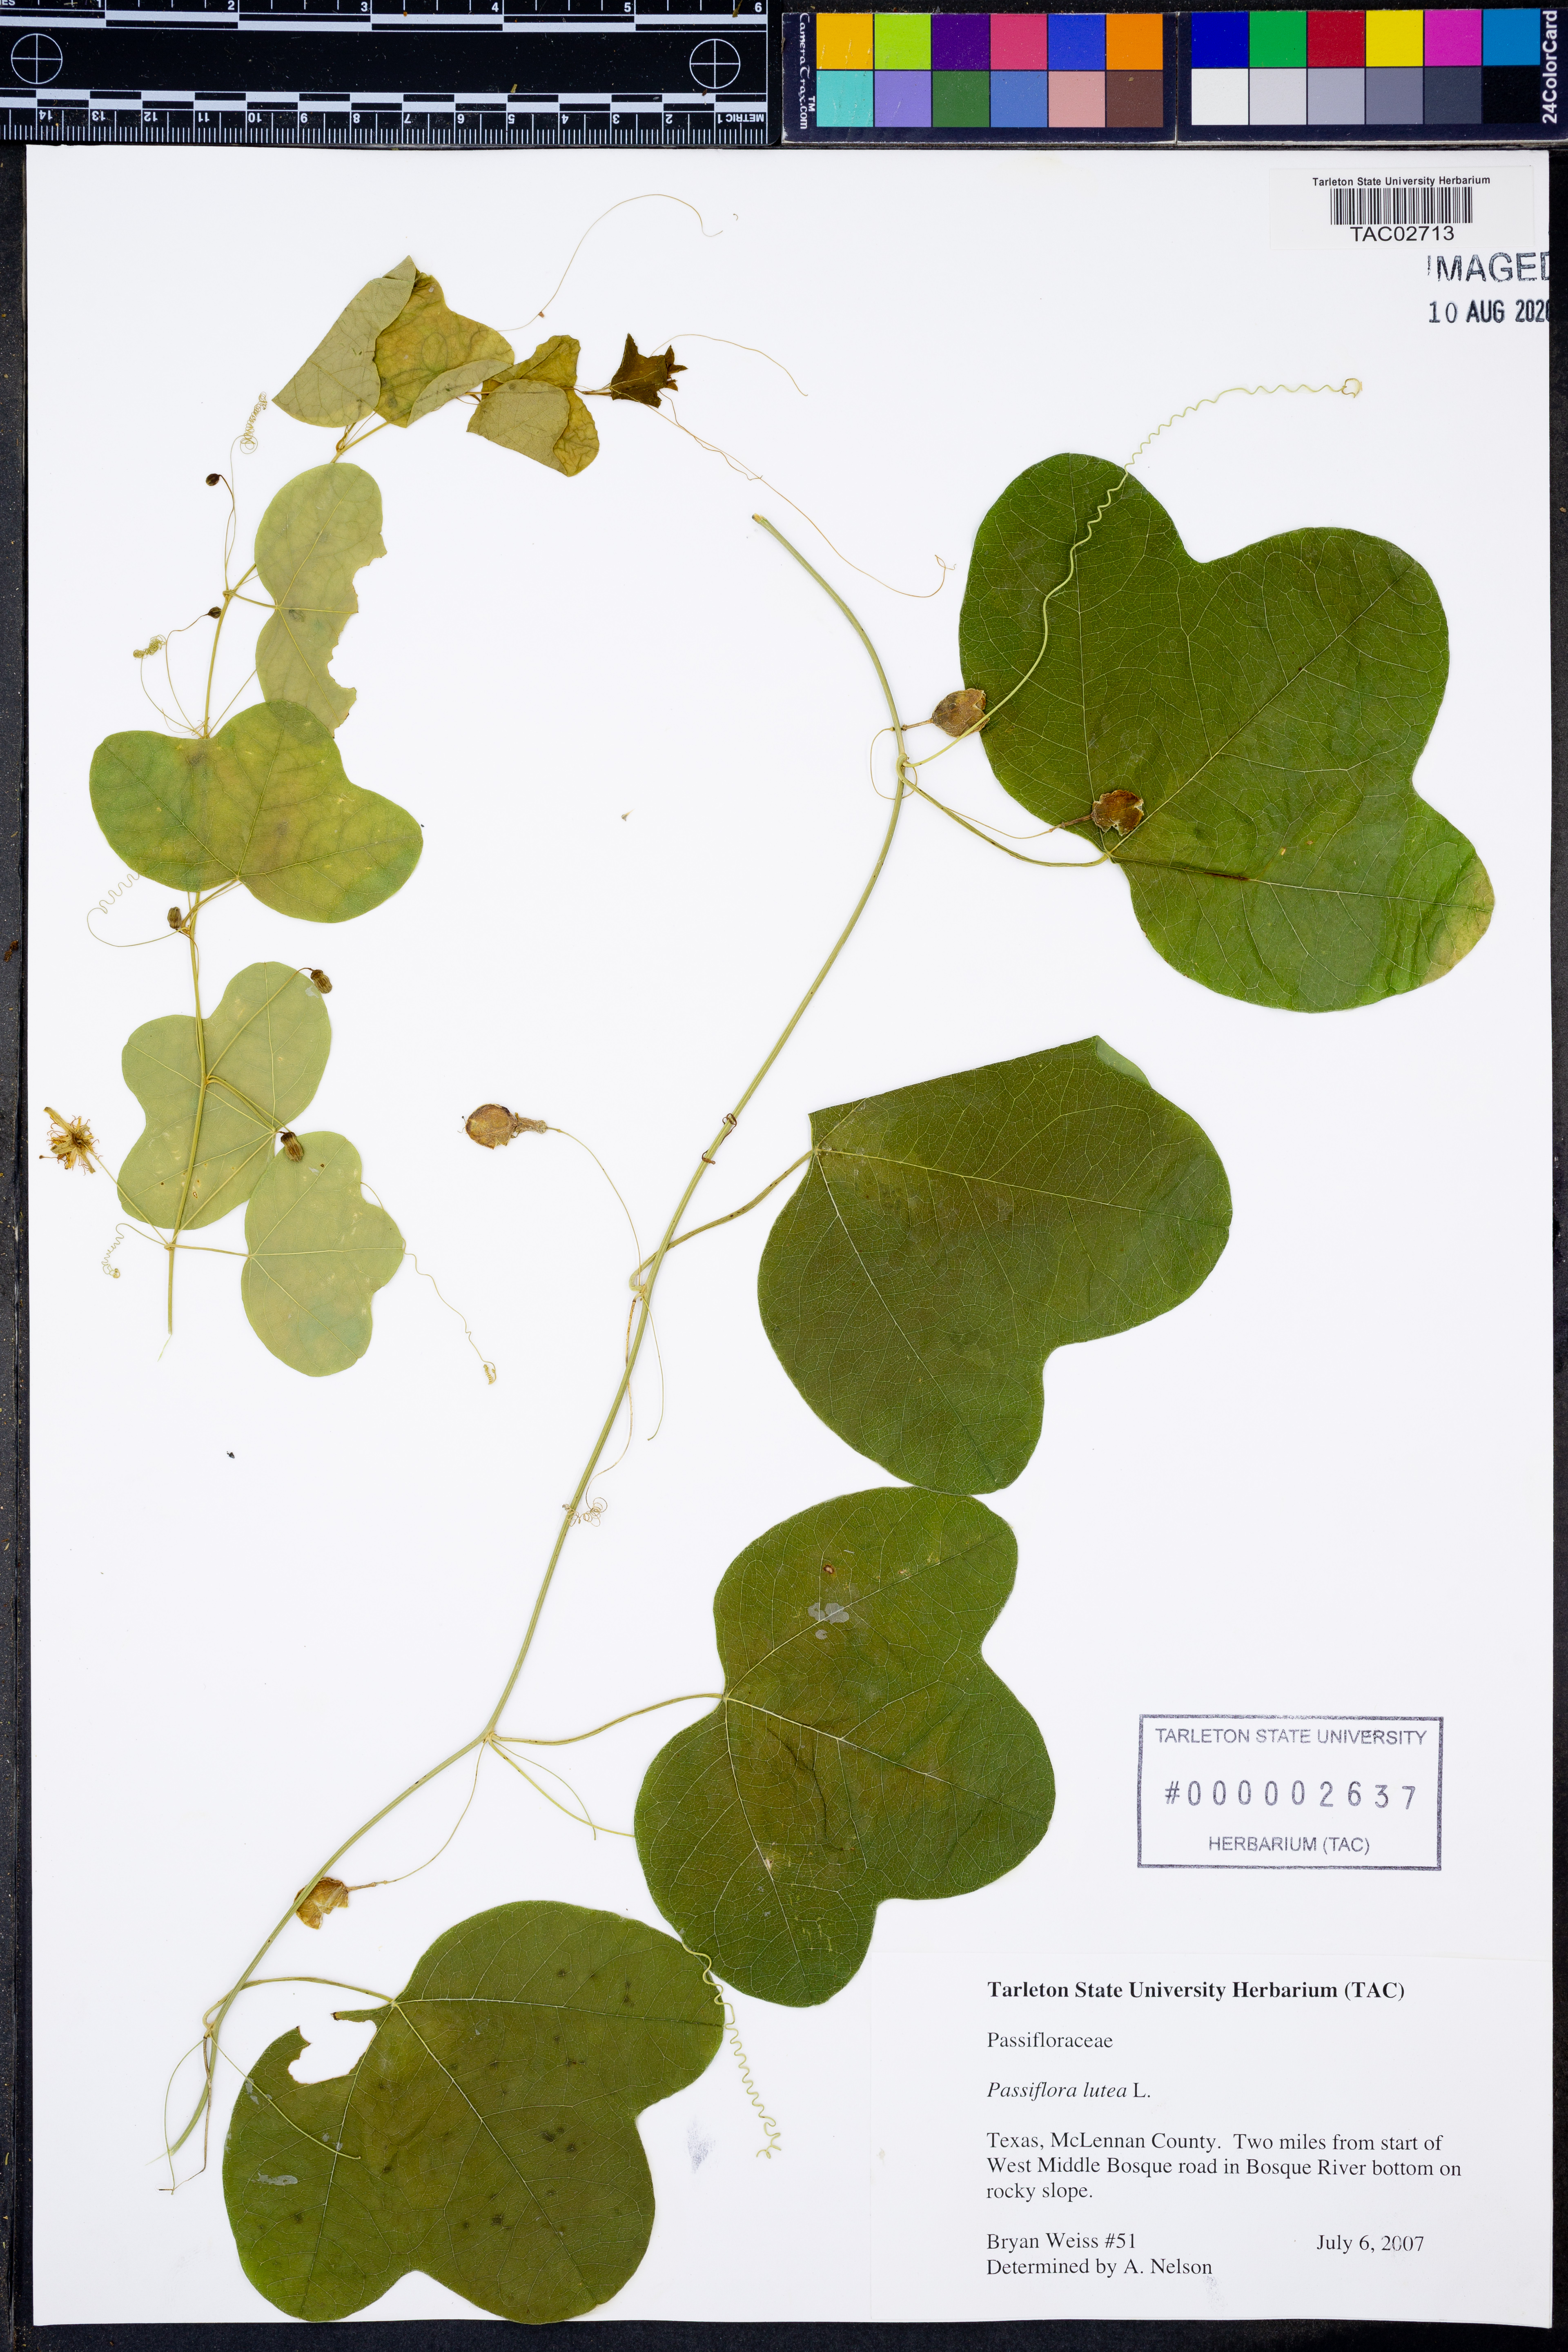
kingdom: Plantae
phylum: Tracheophyta
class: Magnoliopsida
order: Malpighiales
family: Passifloraceae
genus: Passiflora
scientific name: Passiflora lutea
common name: Yellow passionflower
